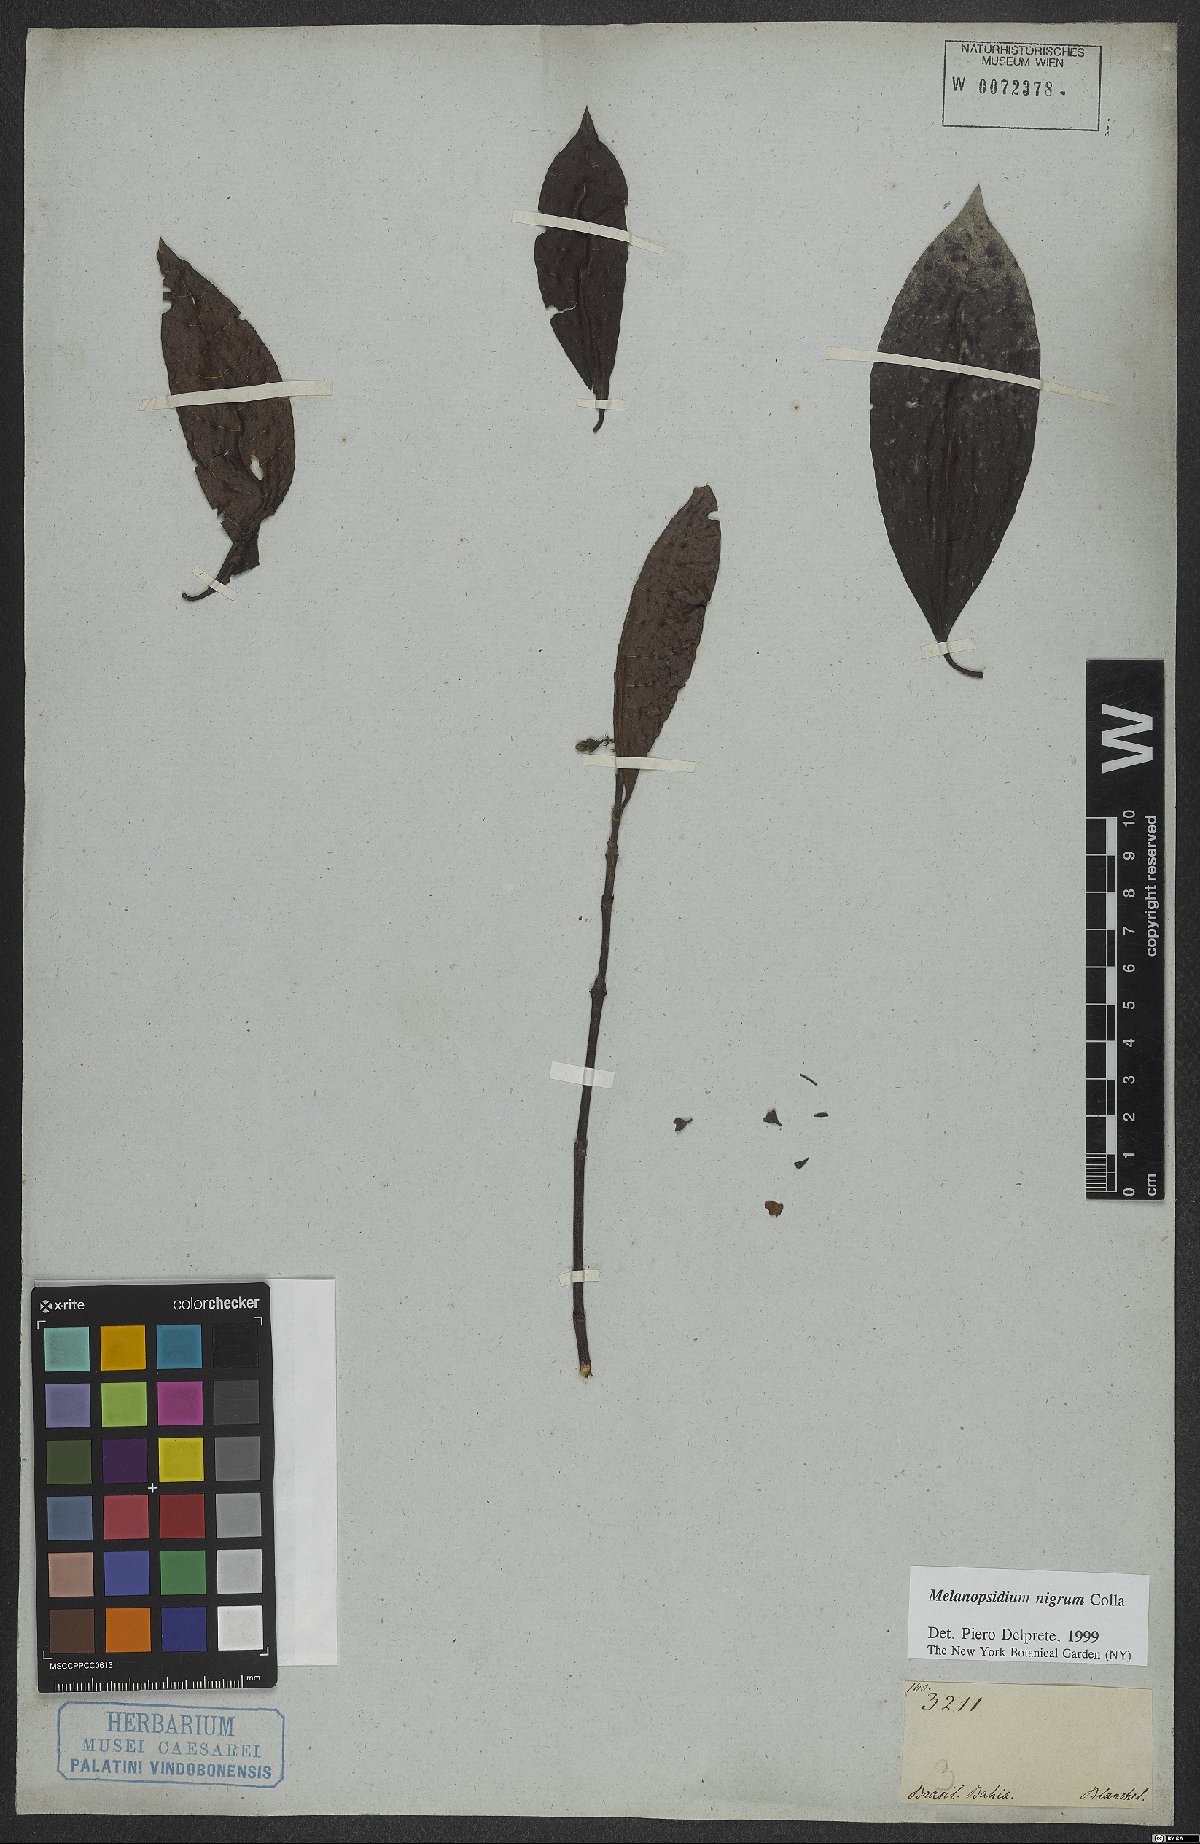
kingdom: Plantae
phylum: Tracheophyta
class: Magnoliopsida
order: Gentianales
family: Rubiaceae
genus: Melanopsidium
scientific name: Melanopsidium nigrum
